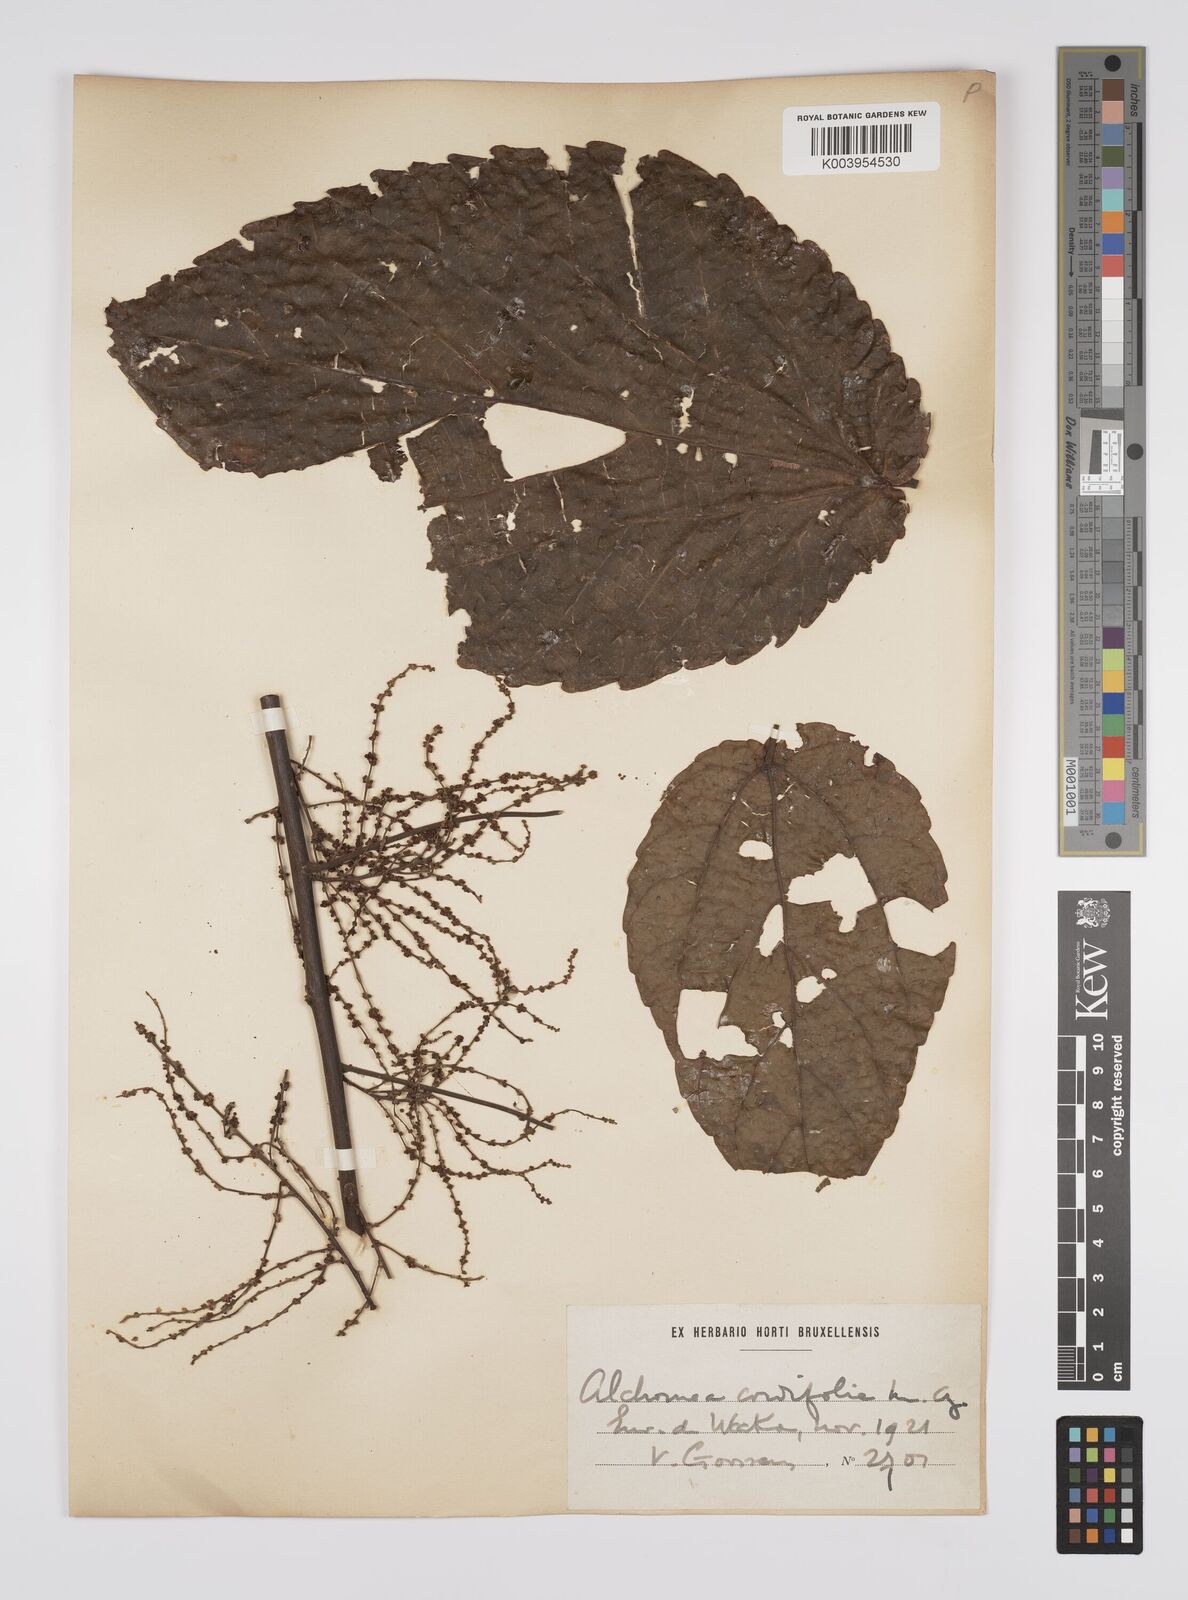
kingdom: Plantae
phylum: Tracheophyta
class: Magnoliopsida
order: Malpighiales
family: Euphorbiaceae
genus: Alchornea
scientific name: Alchornea cordifolia
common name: Christmasbush
